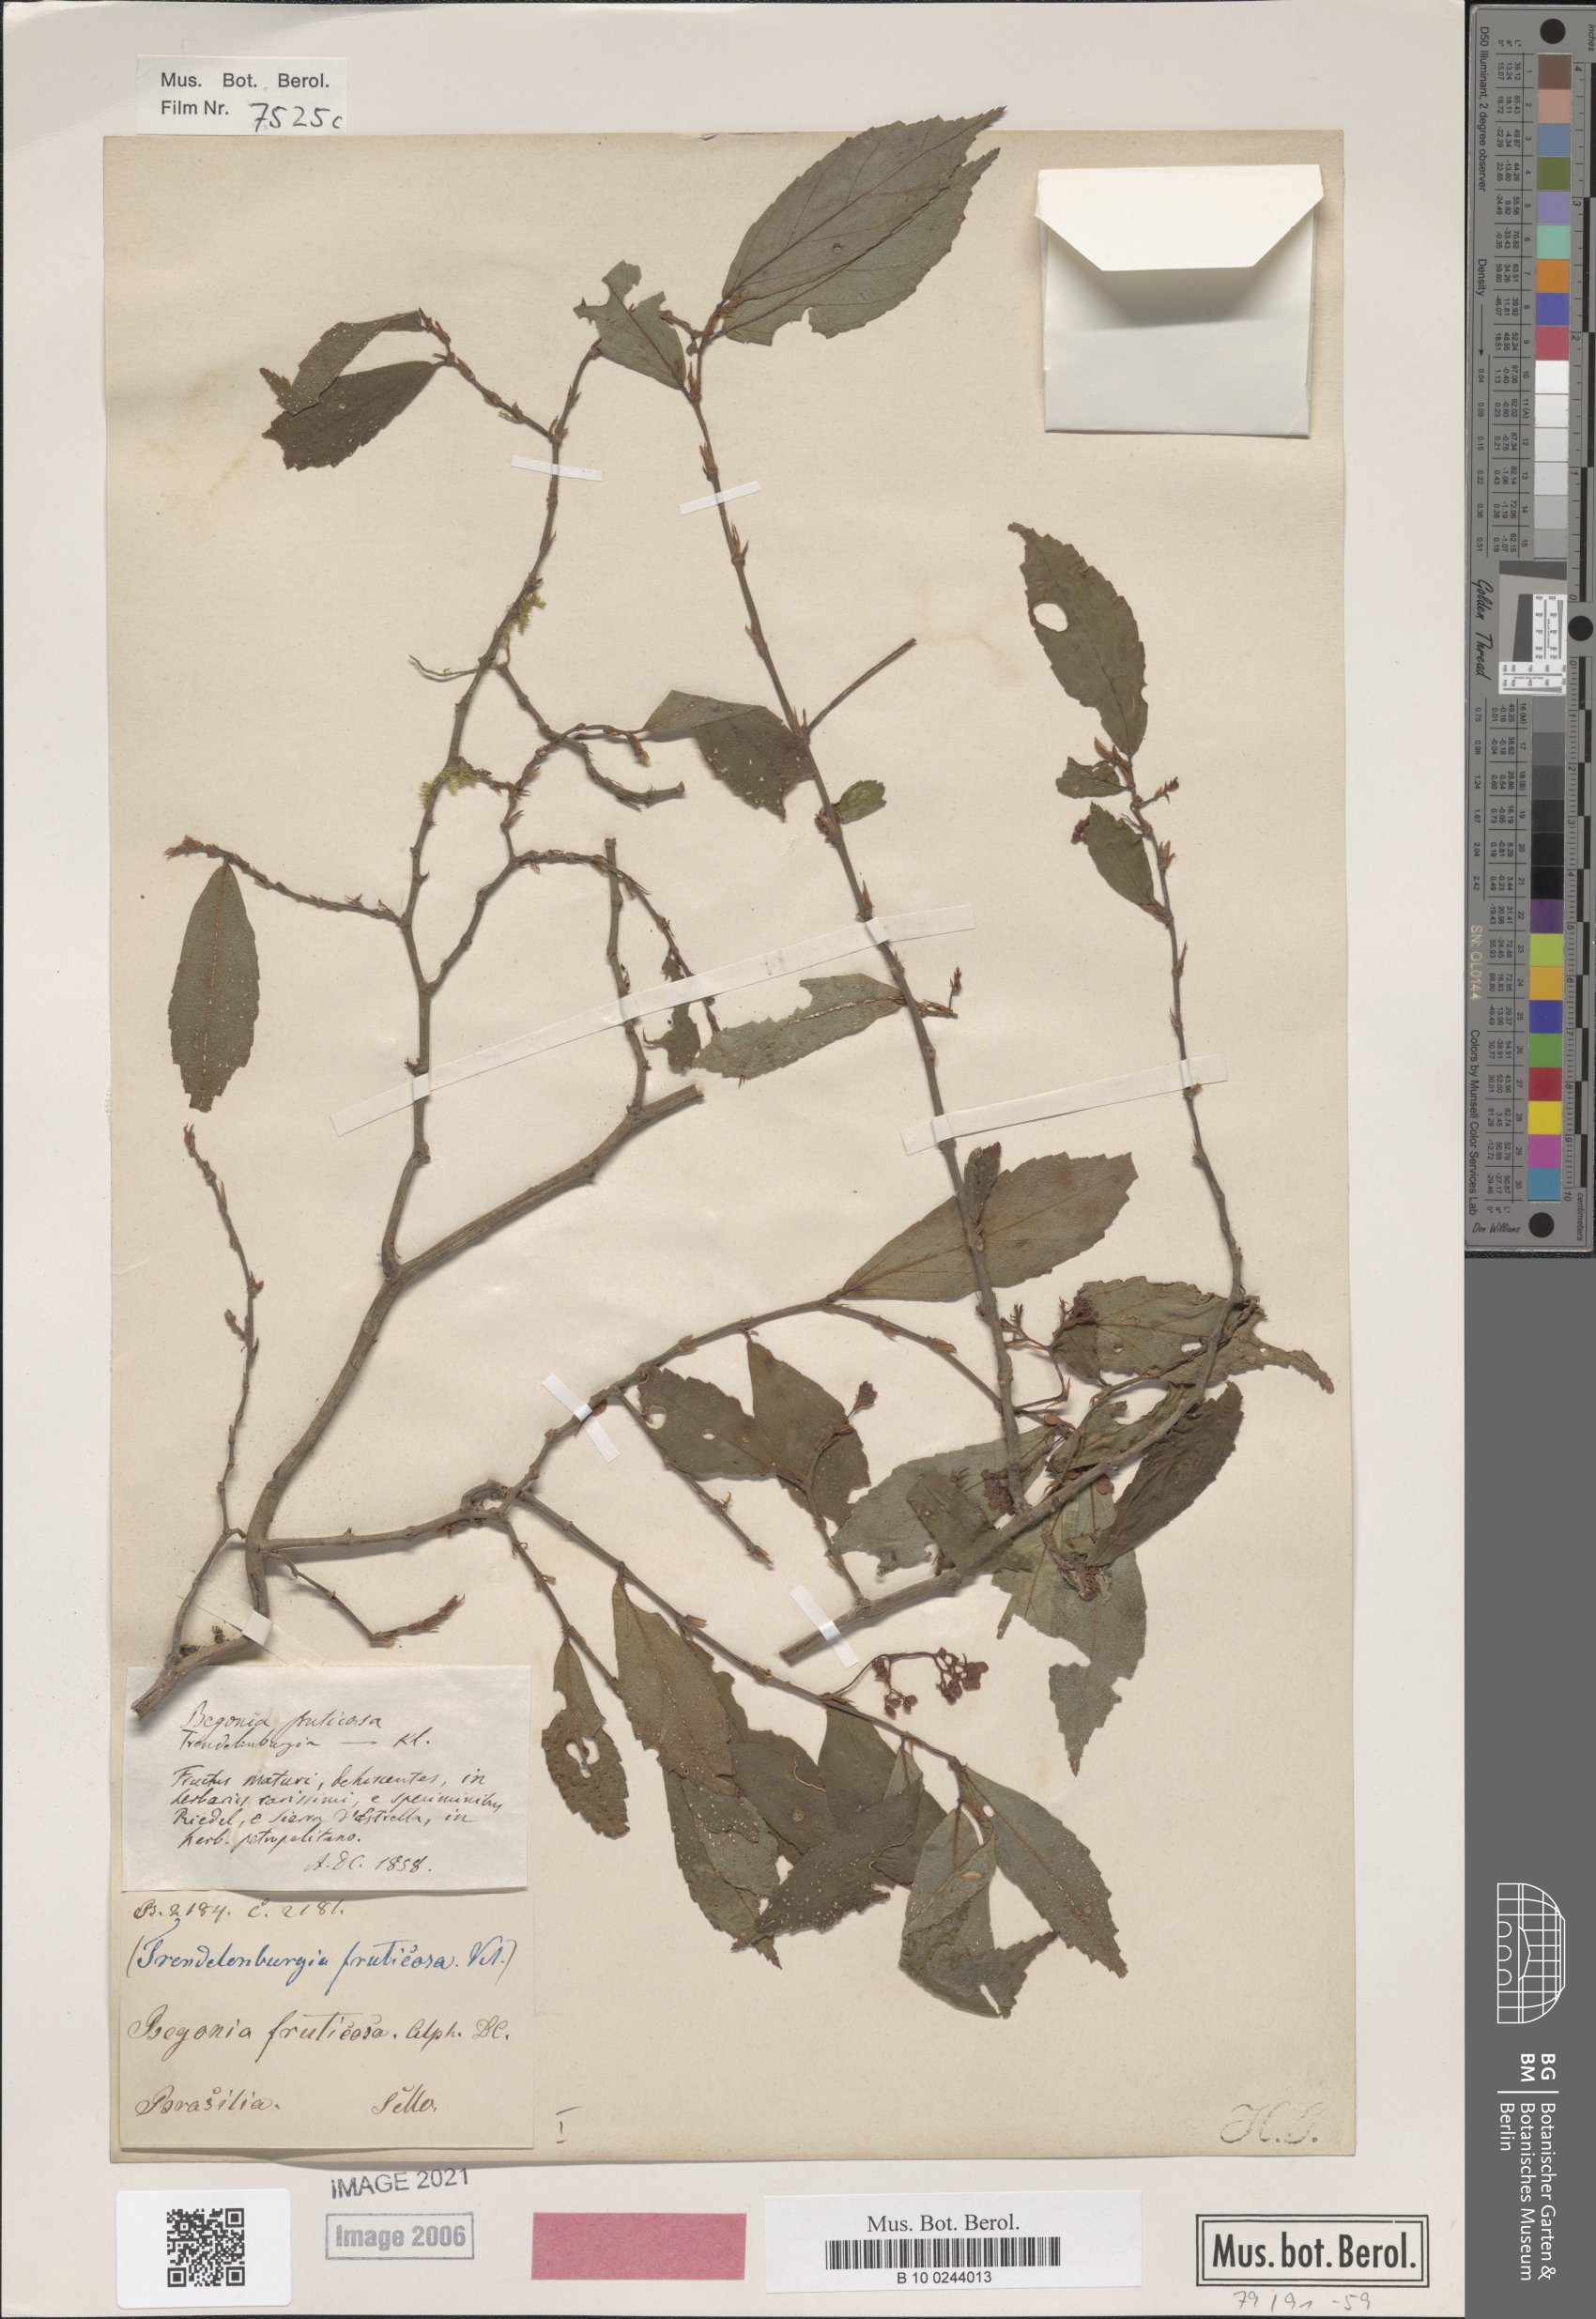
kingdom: Plantae
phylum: Tracheophyta
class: Magnoliopsida
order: Cucurbitales
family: Begoniaceae
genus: Begonia
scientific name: Begonia fruticosa
